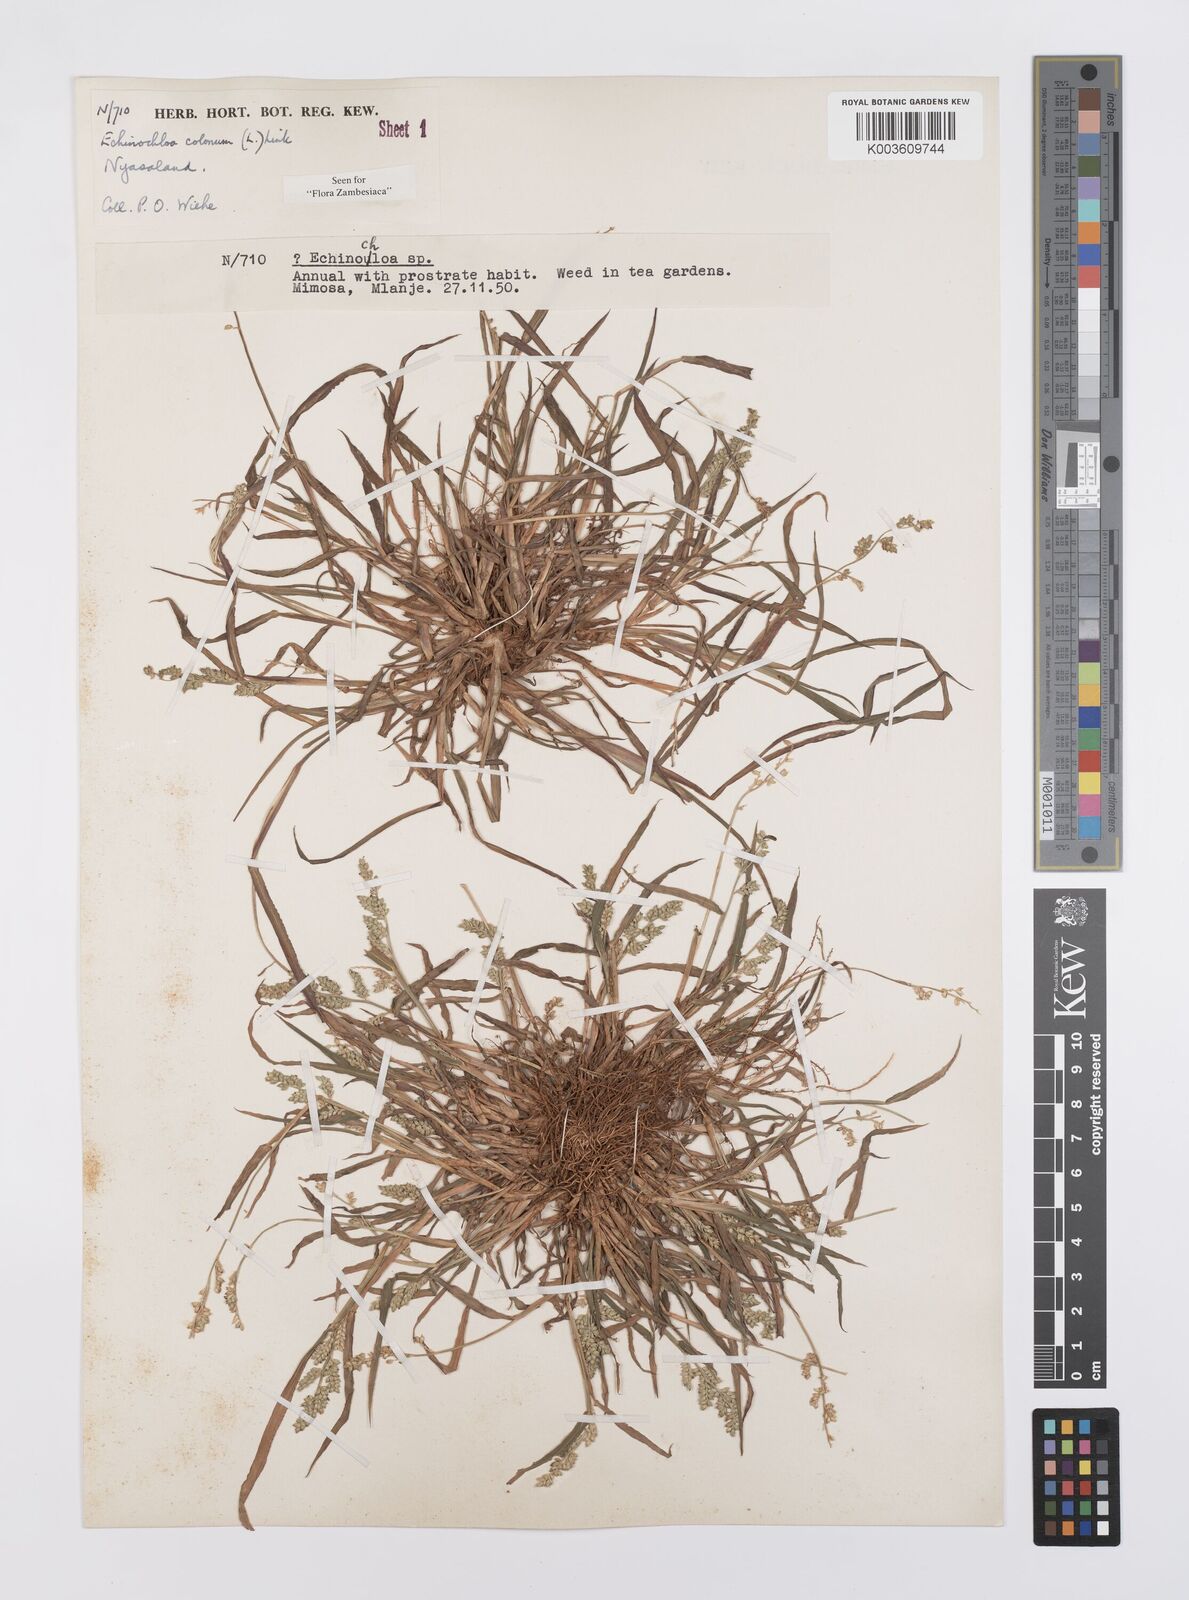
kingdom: Plantae
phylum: Tracheophyta
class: Liliopsida
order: Poales
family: Poaceae
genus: Echinochloa
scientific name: Echinochloa colonum
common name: Jungle rice
